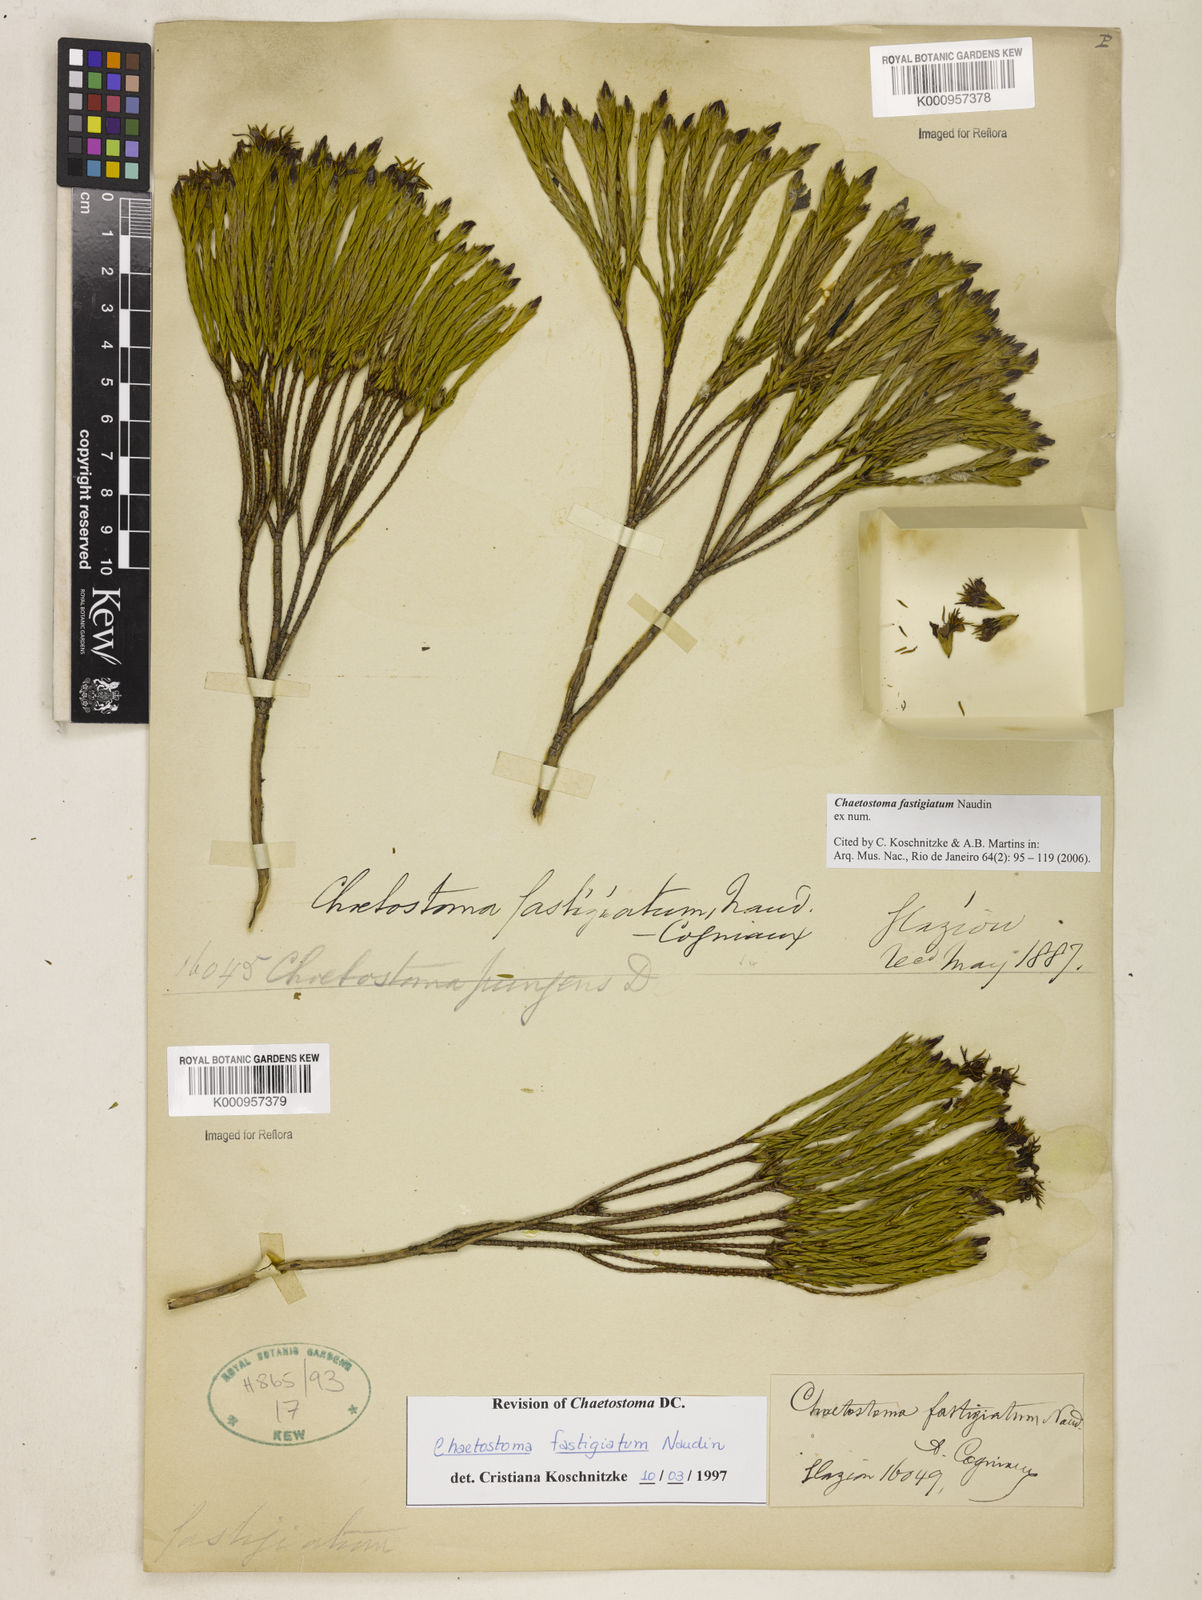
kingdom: Plantae
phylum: Tracheophyta
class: Magnoliopsida
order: Myrtales
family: Melastomataceae
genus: Microlicia
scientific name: Microlicia fastigiata
